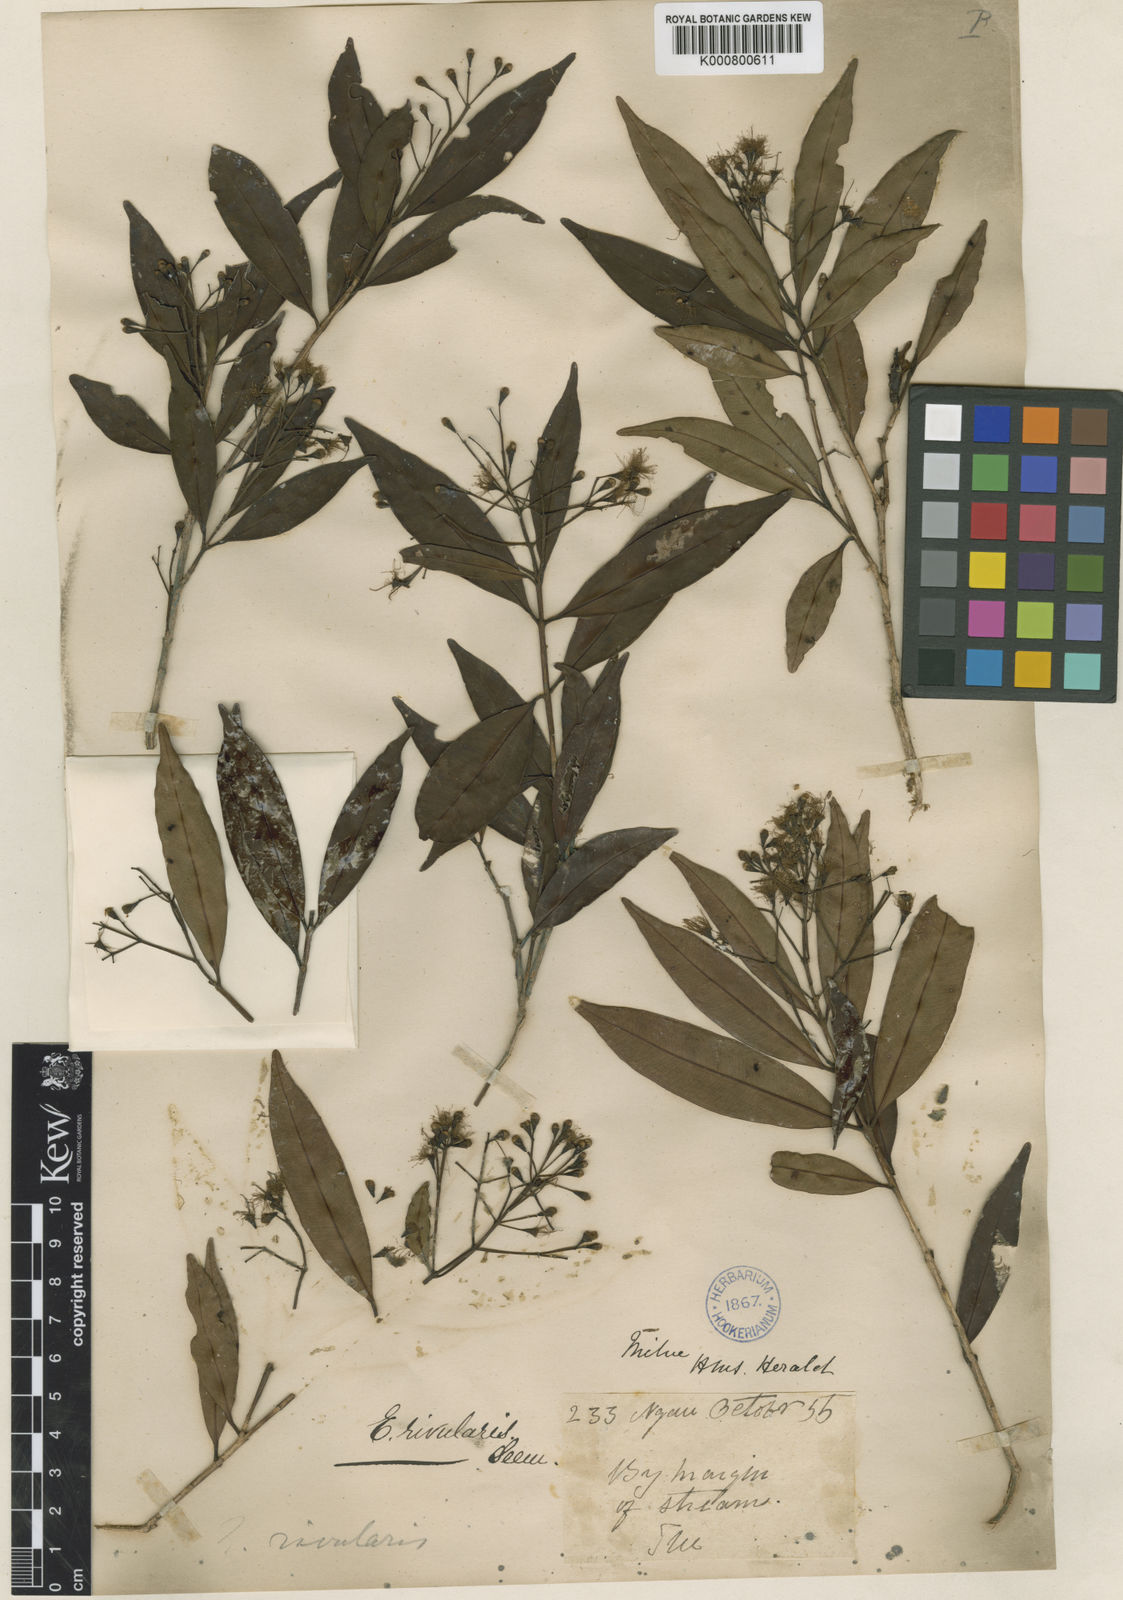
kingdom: Plantae
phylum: Tracheophyta
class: Magnoliopsida
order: Myrtales
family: Myrtaceae
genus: Syzygium
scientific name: Syzygium seemannianum
